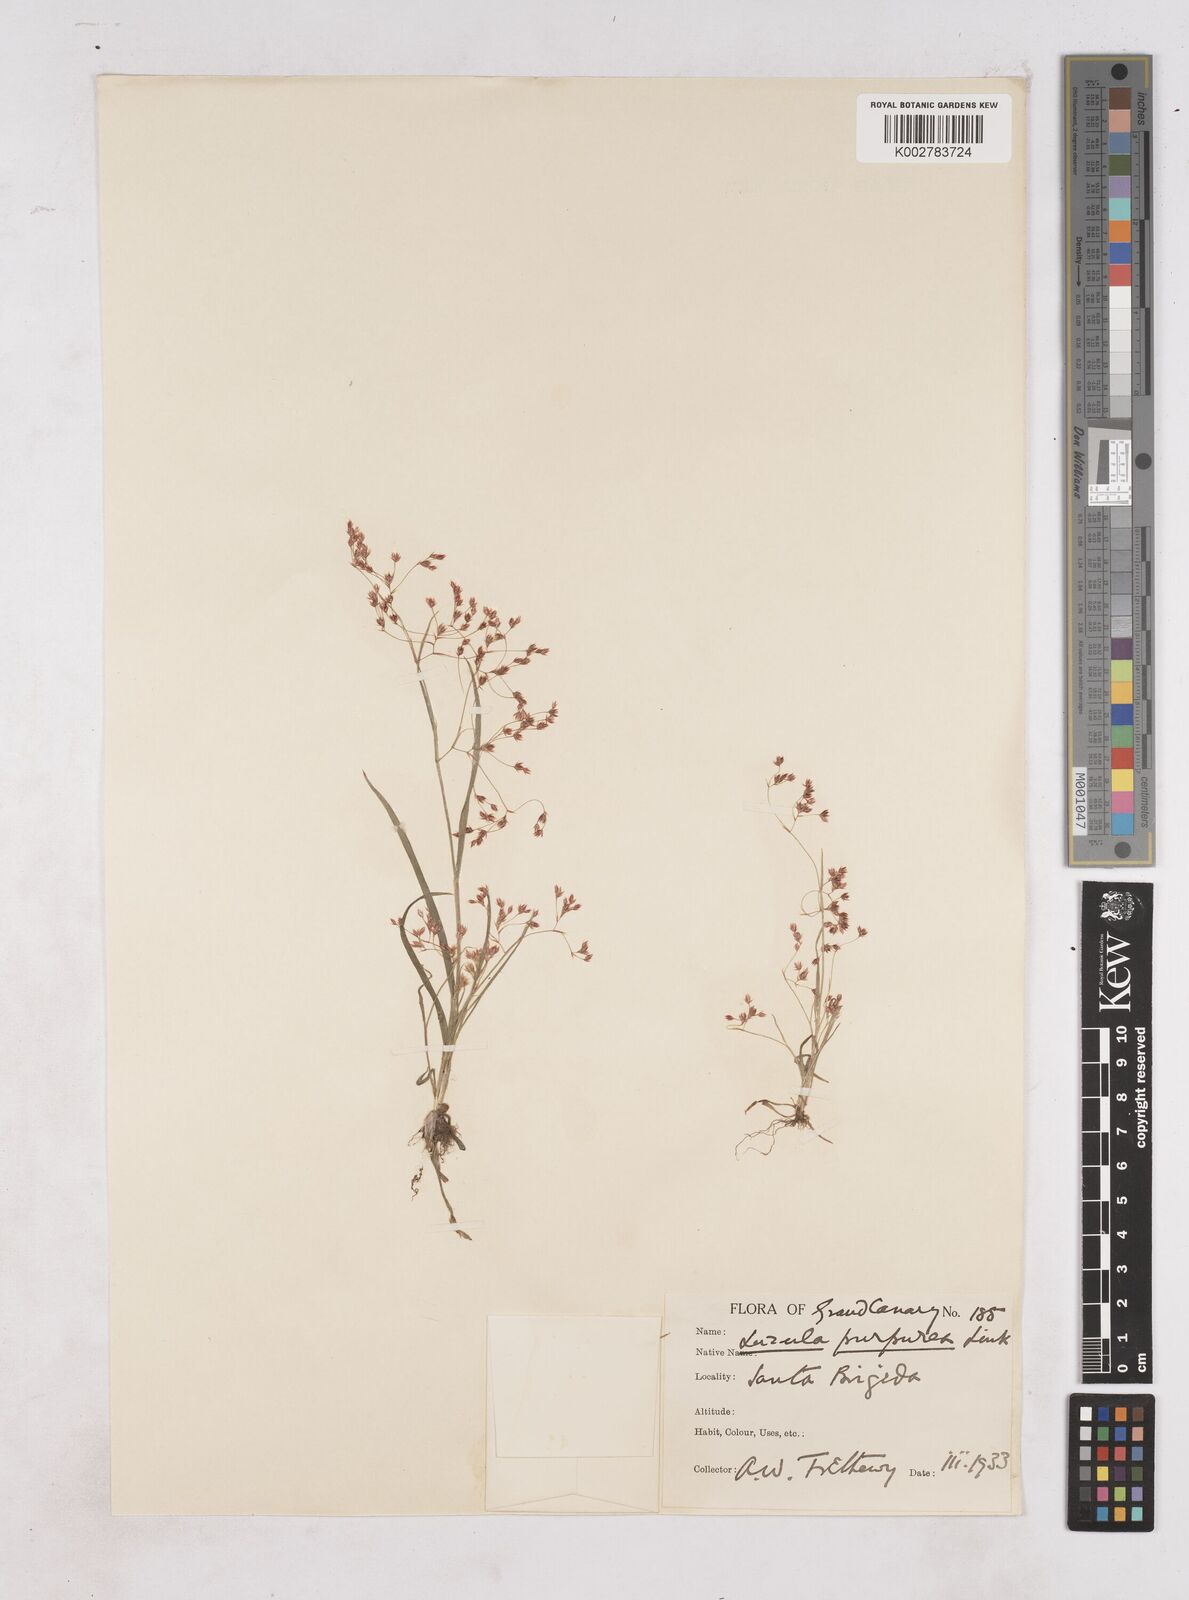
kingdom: Plantae
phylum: Tracheophyta
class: Liliopsida
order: Poales
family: Juncaceae
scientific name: Juncaceae
